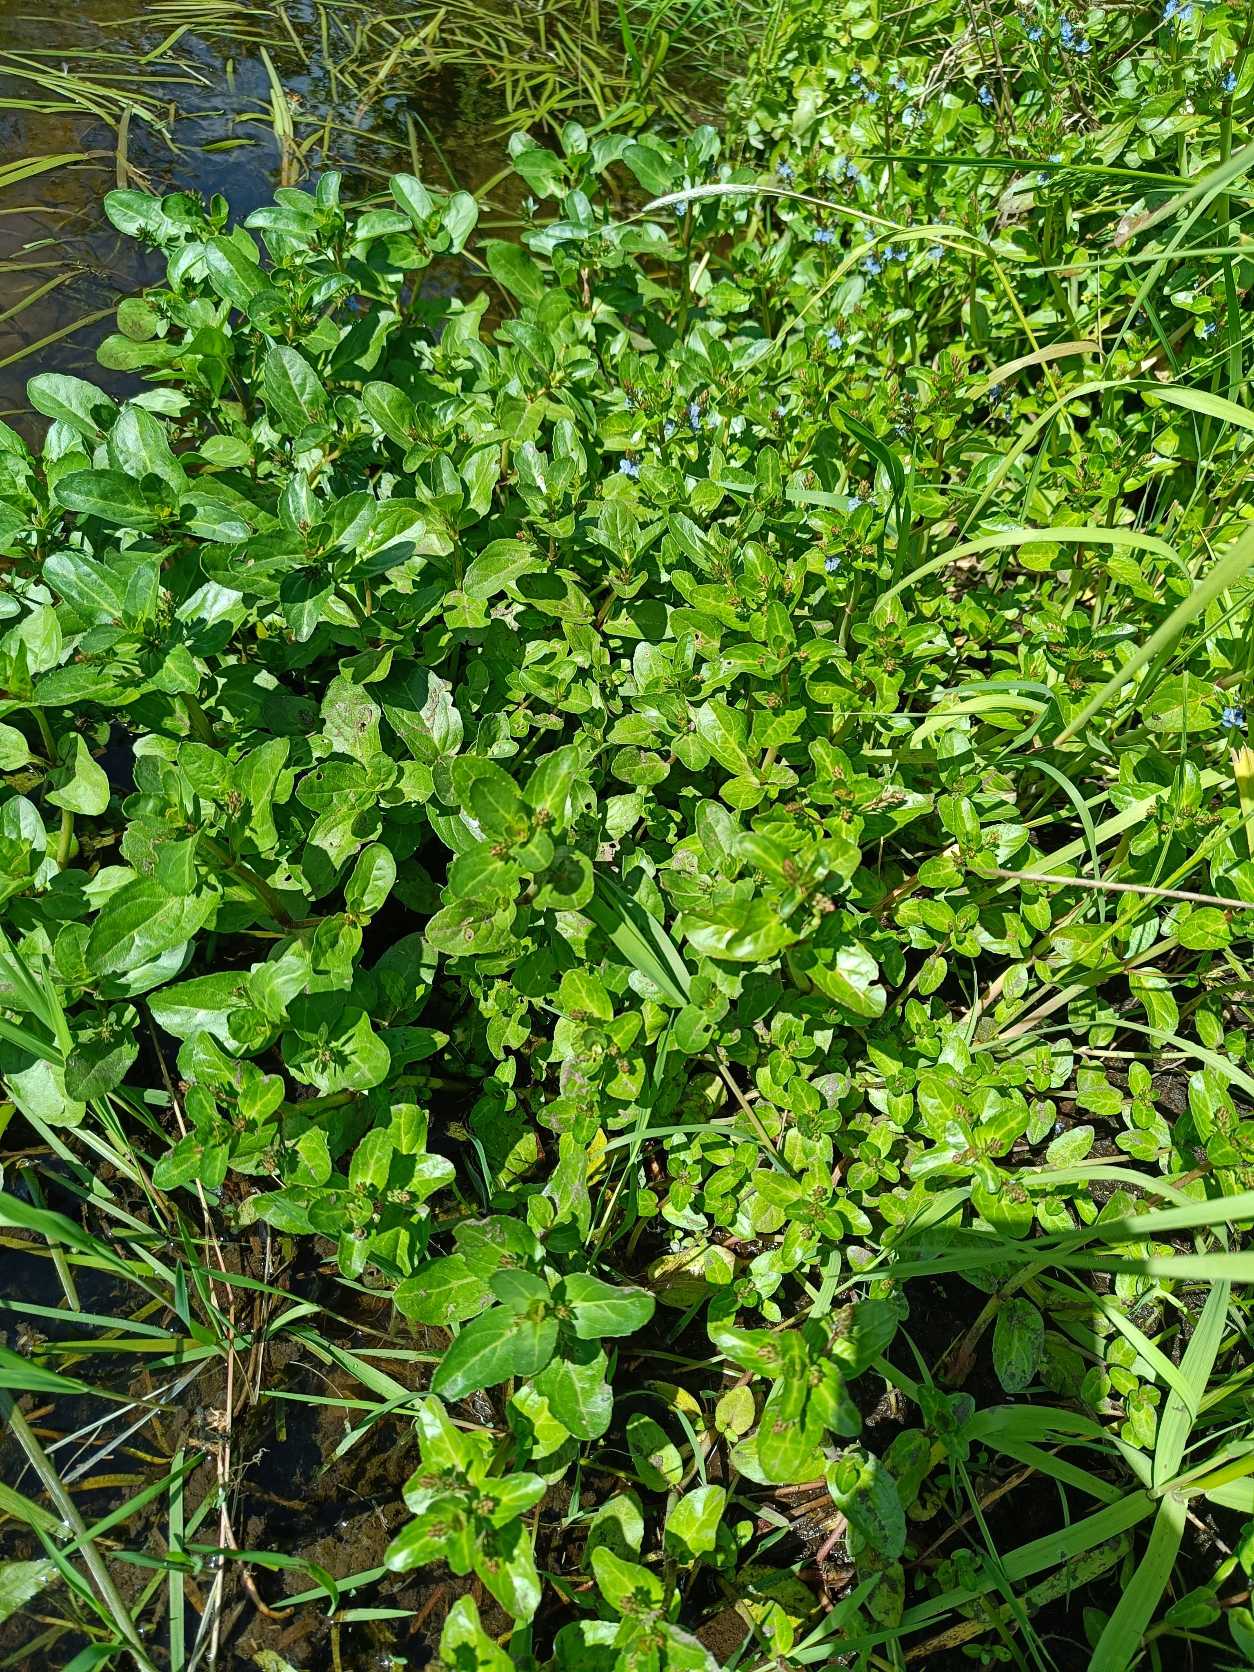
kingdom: Plantae
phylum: Tracheophyta
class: Magnoliopsida
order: Lamiales
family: Plantaginaceae
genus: Veronica
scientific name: Veronica beccabunga
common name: Tykbladet ærenpris
